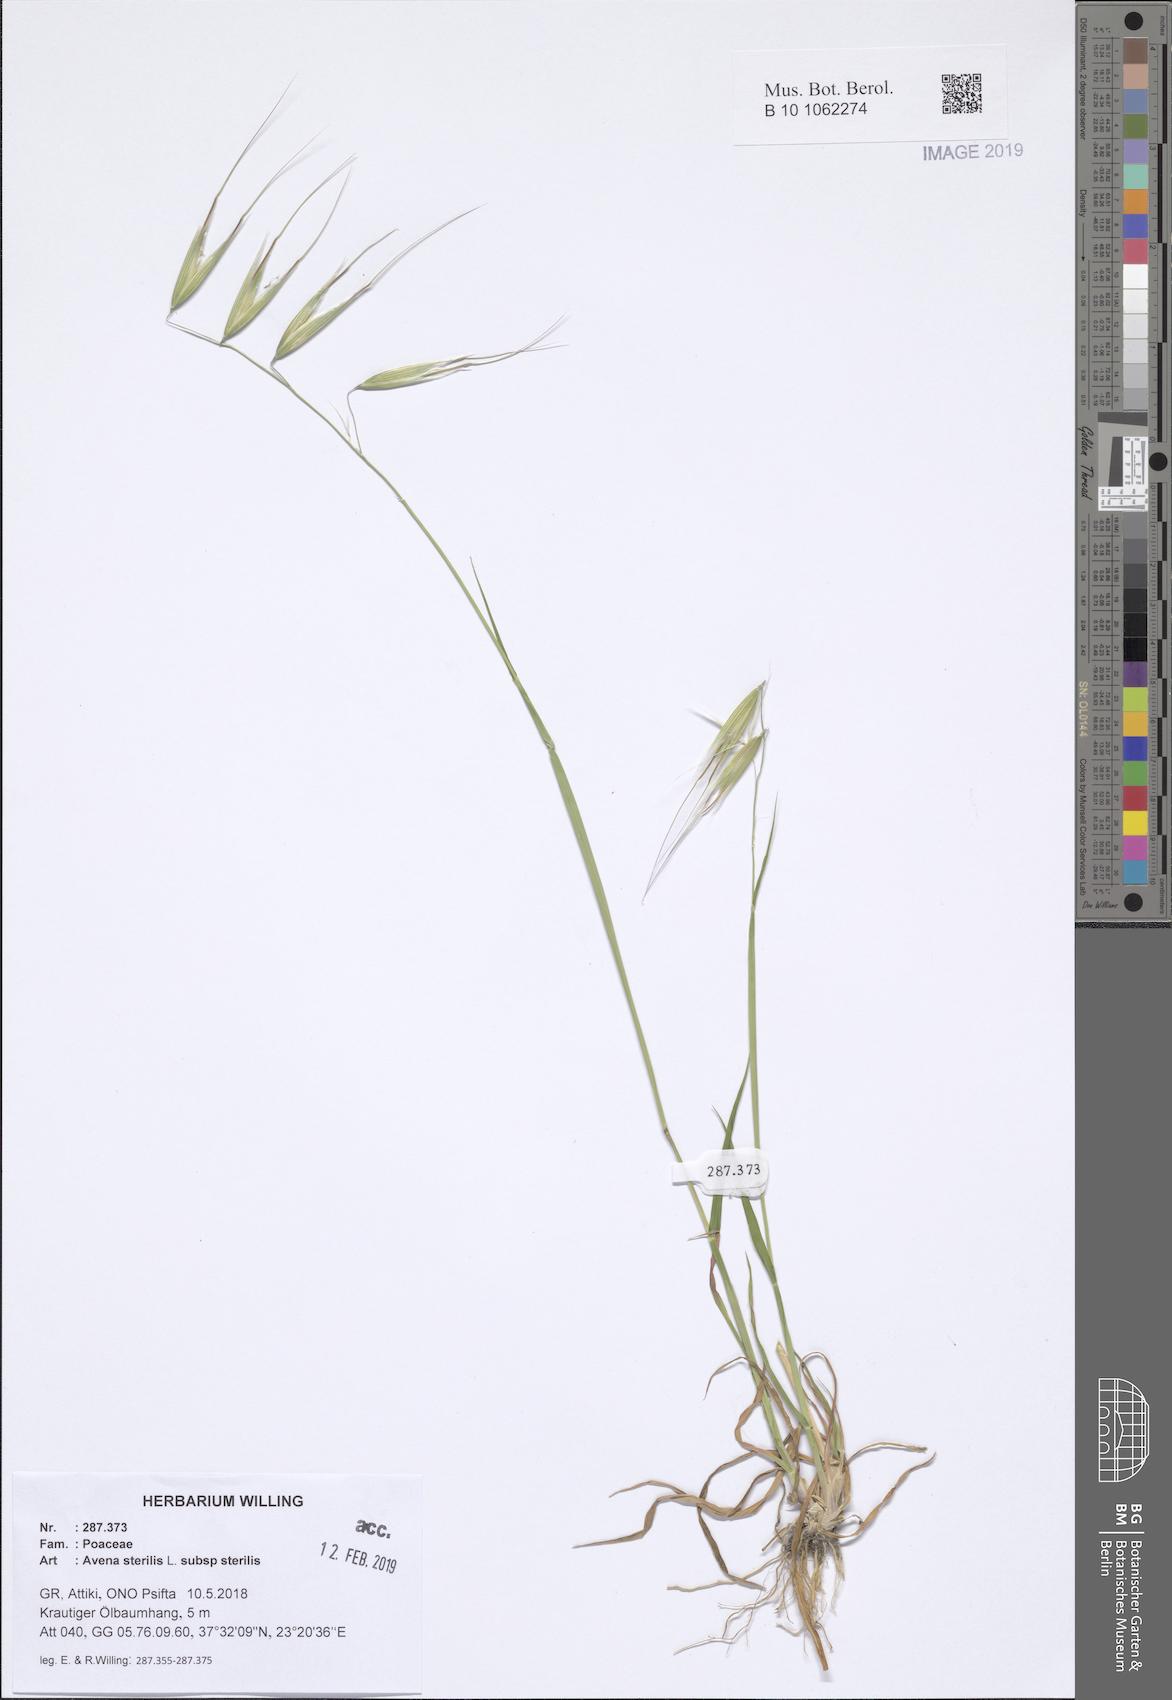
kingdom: Plantae
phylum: Tracheophyta
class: Liliopsida
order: Poales
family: Poaceae
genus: Avena
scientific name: Avena sterilis
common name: Animated oat
